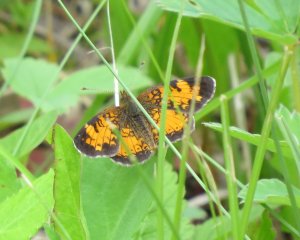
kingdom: Animalia
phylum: Arthropoda
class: Insecta
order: Lepidoptera
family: Nymphalidae
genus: Phyciodes
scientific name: Phyciodes tharos
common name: Northern Crescent
